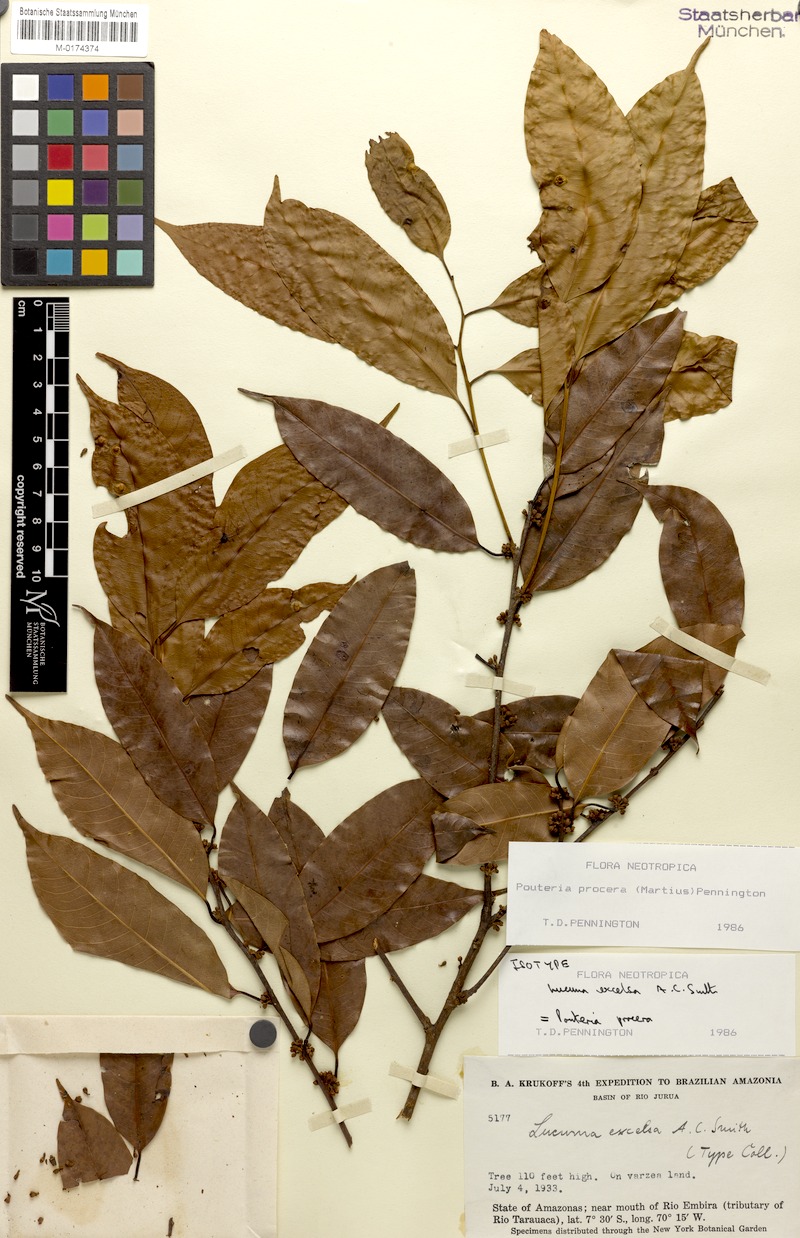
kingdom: Plantae
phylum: Tracheophyta
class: Magnoliopsida
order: Ericales
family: Sapotaceae
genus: Pouteria
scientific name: Pouteria procera
